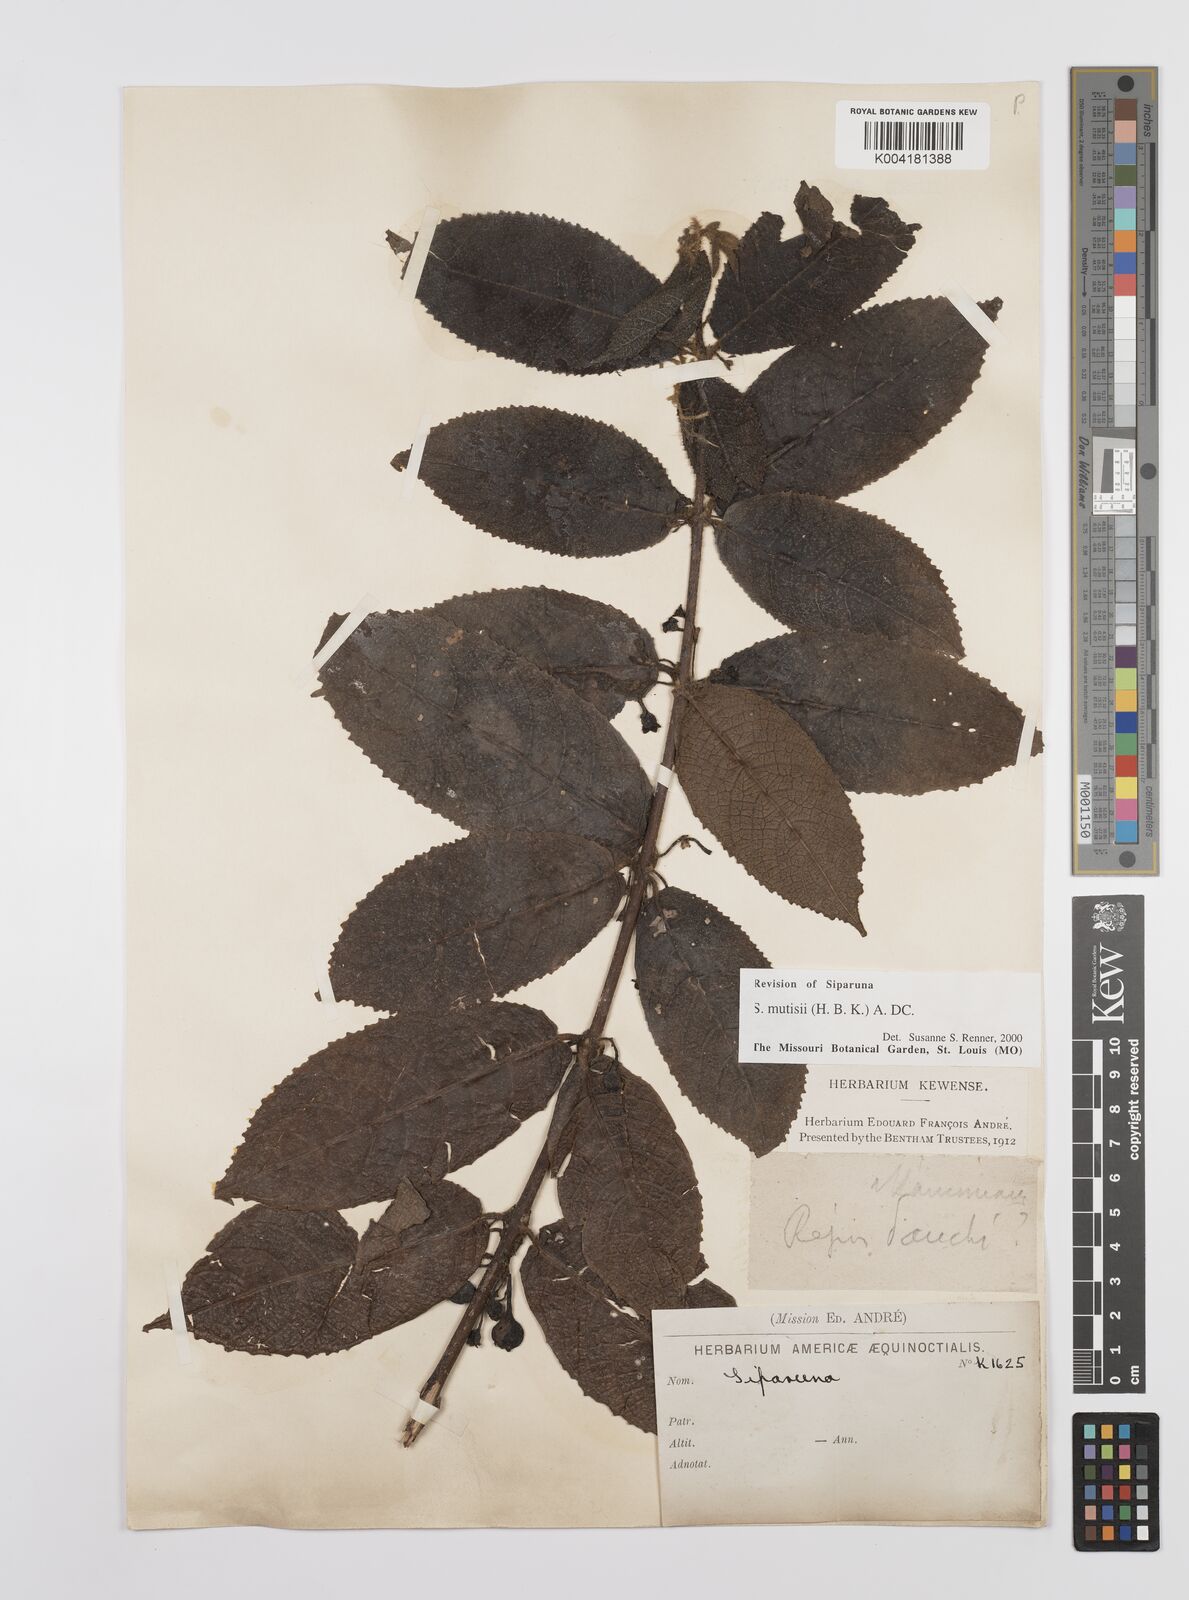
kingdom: Plantae
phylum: Tracheophyta
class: Magnoliopsida
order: Laurales
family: Siparunaceae
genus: Siparuna
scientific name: Siparuna mutisii
